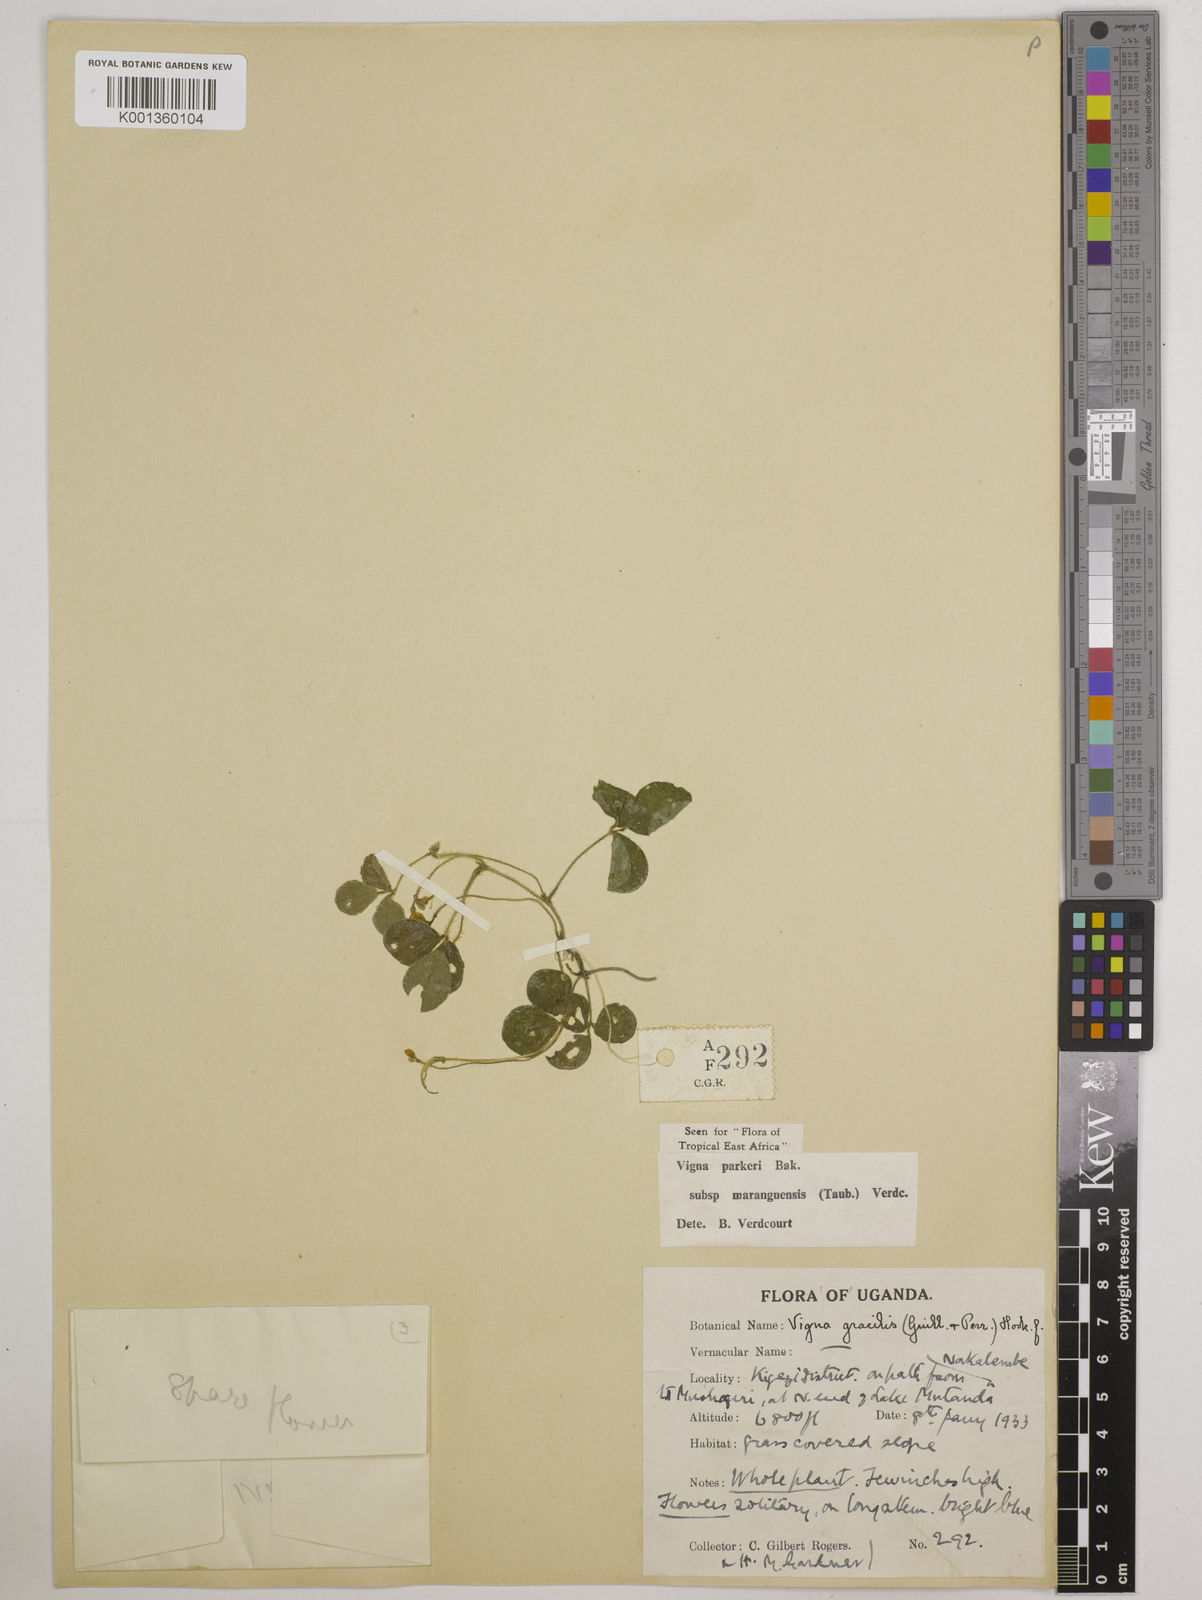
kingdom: Plantae
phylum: Tracheophyta
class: Magnoliopsida
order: Fabales
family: Fabaceae
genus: Vigna
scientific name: Vigna parkeri
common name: Creeping vigna
